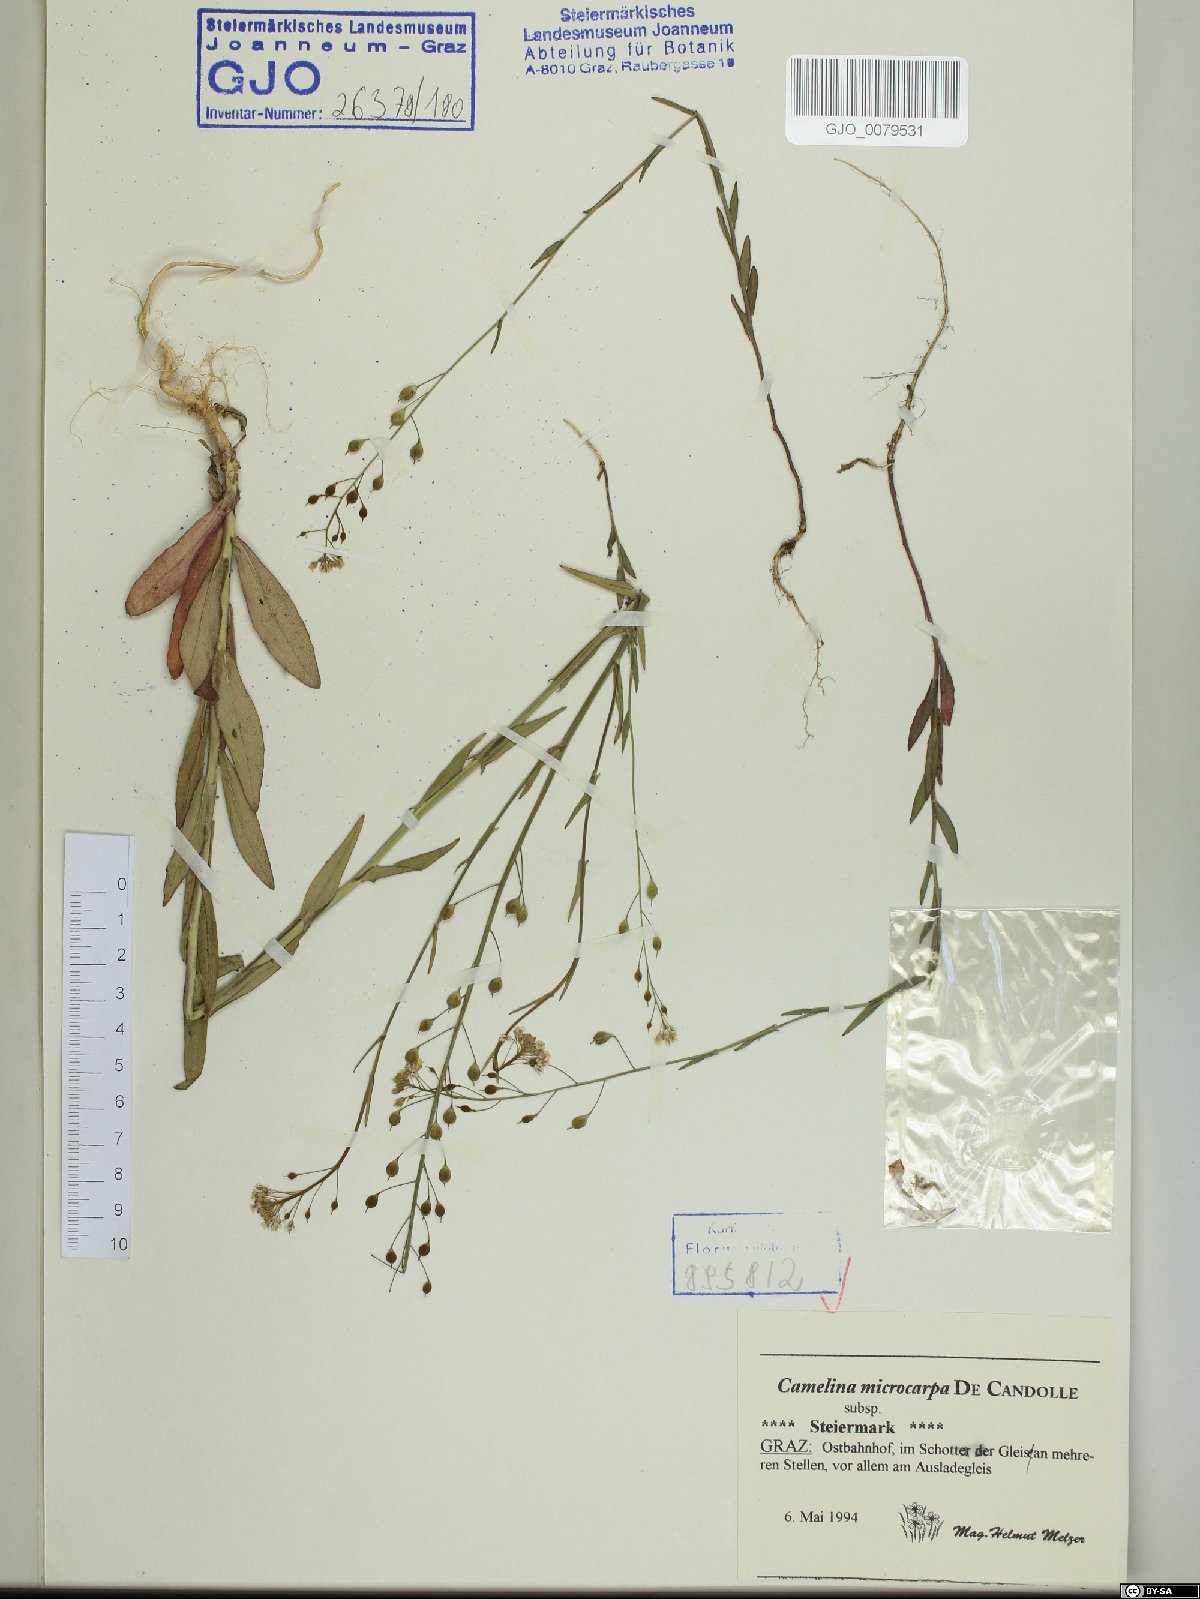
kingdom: Plantae
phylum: Tracheophyta
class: Magnoliopsida
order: Brassicales
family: Brassicaceae
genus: Camelina
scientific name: Camelina microcarpa
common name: Lesser gold-of-pleasure
